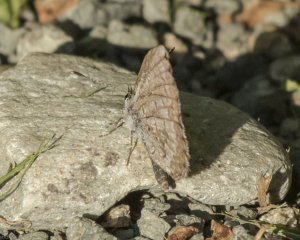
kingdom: Animalia
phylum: Arthropoda
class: Insecta
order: Lepidoptera
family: Lycaenidae
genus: Celastrina
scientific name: Celastrina lucia
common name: Northern Spring Azure
